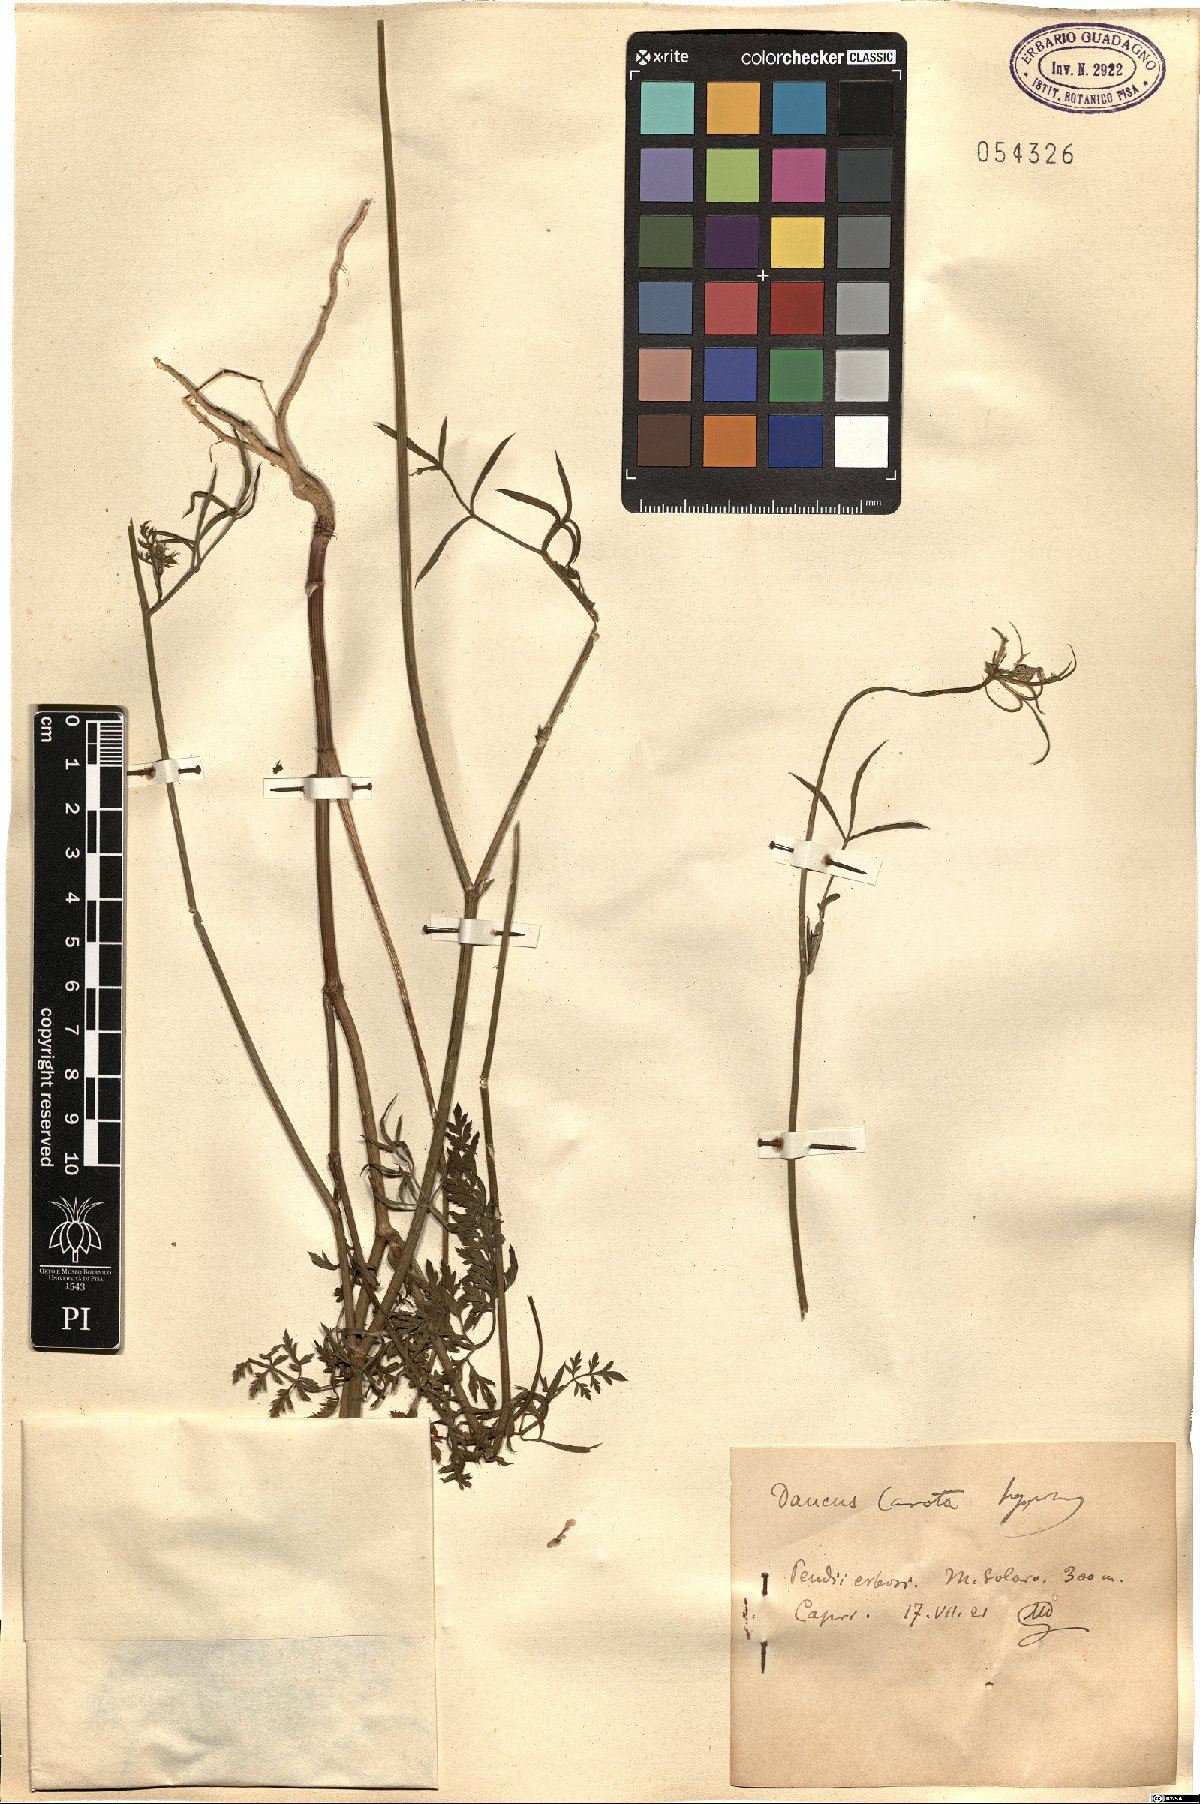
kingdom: Plantae
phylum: Tracheophyta
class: Magnoliopsida
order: Apiales
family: Apiaceae
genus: Daucus
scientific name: Daucus carota
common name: Wild carrot
